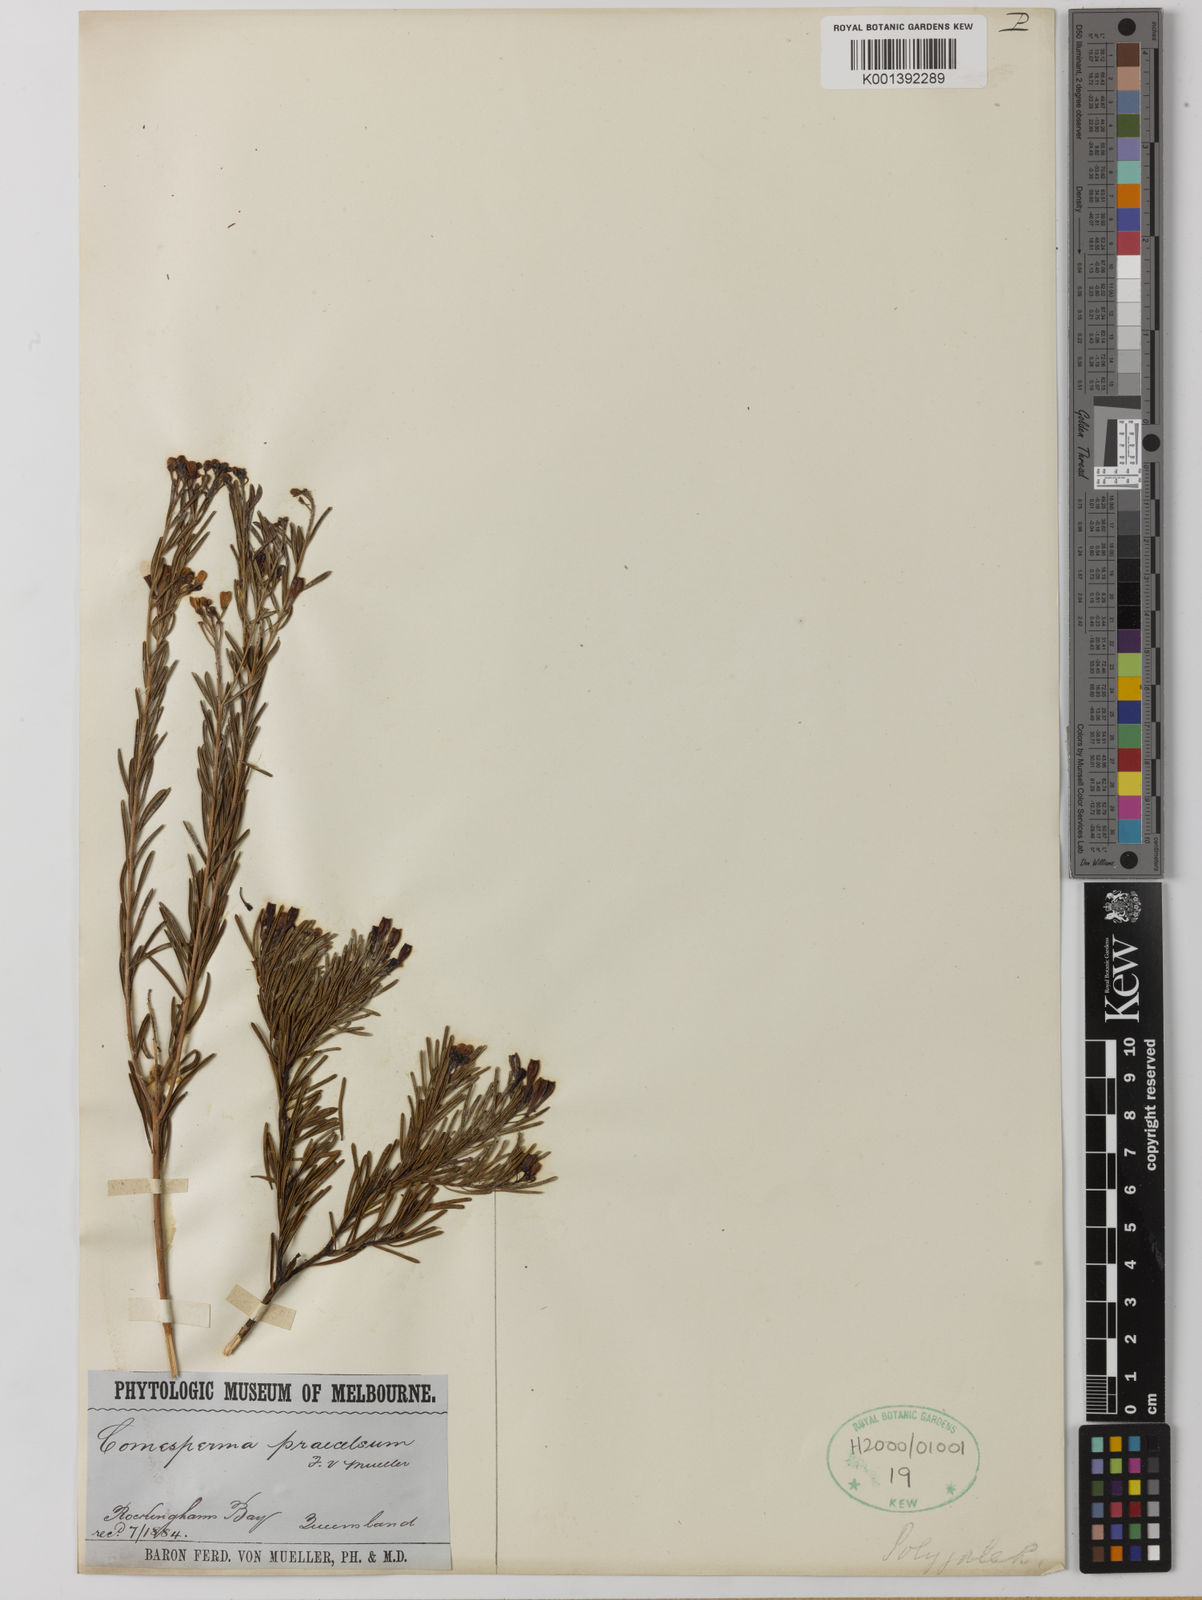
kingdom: Plantae
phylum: Tracheophyta
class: Magnoliopsida
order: Fabales
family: Polygalaceae
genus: Comesperma
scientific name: Comesperma praecelsum
